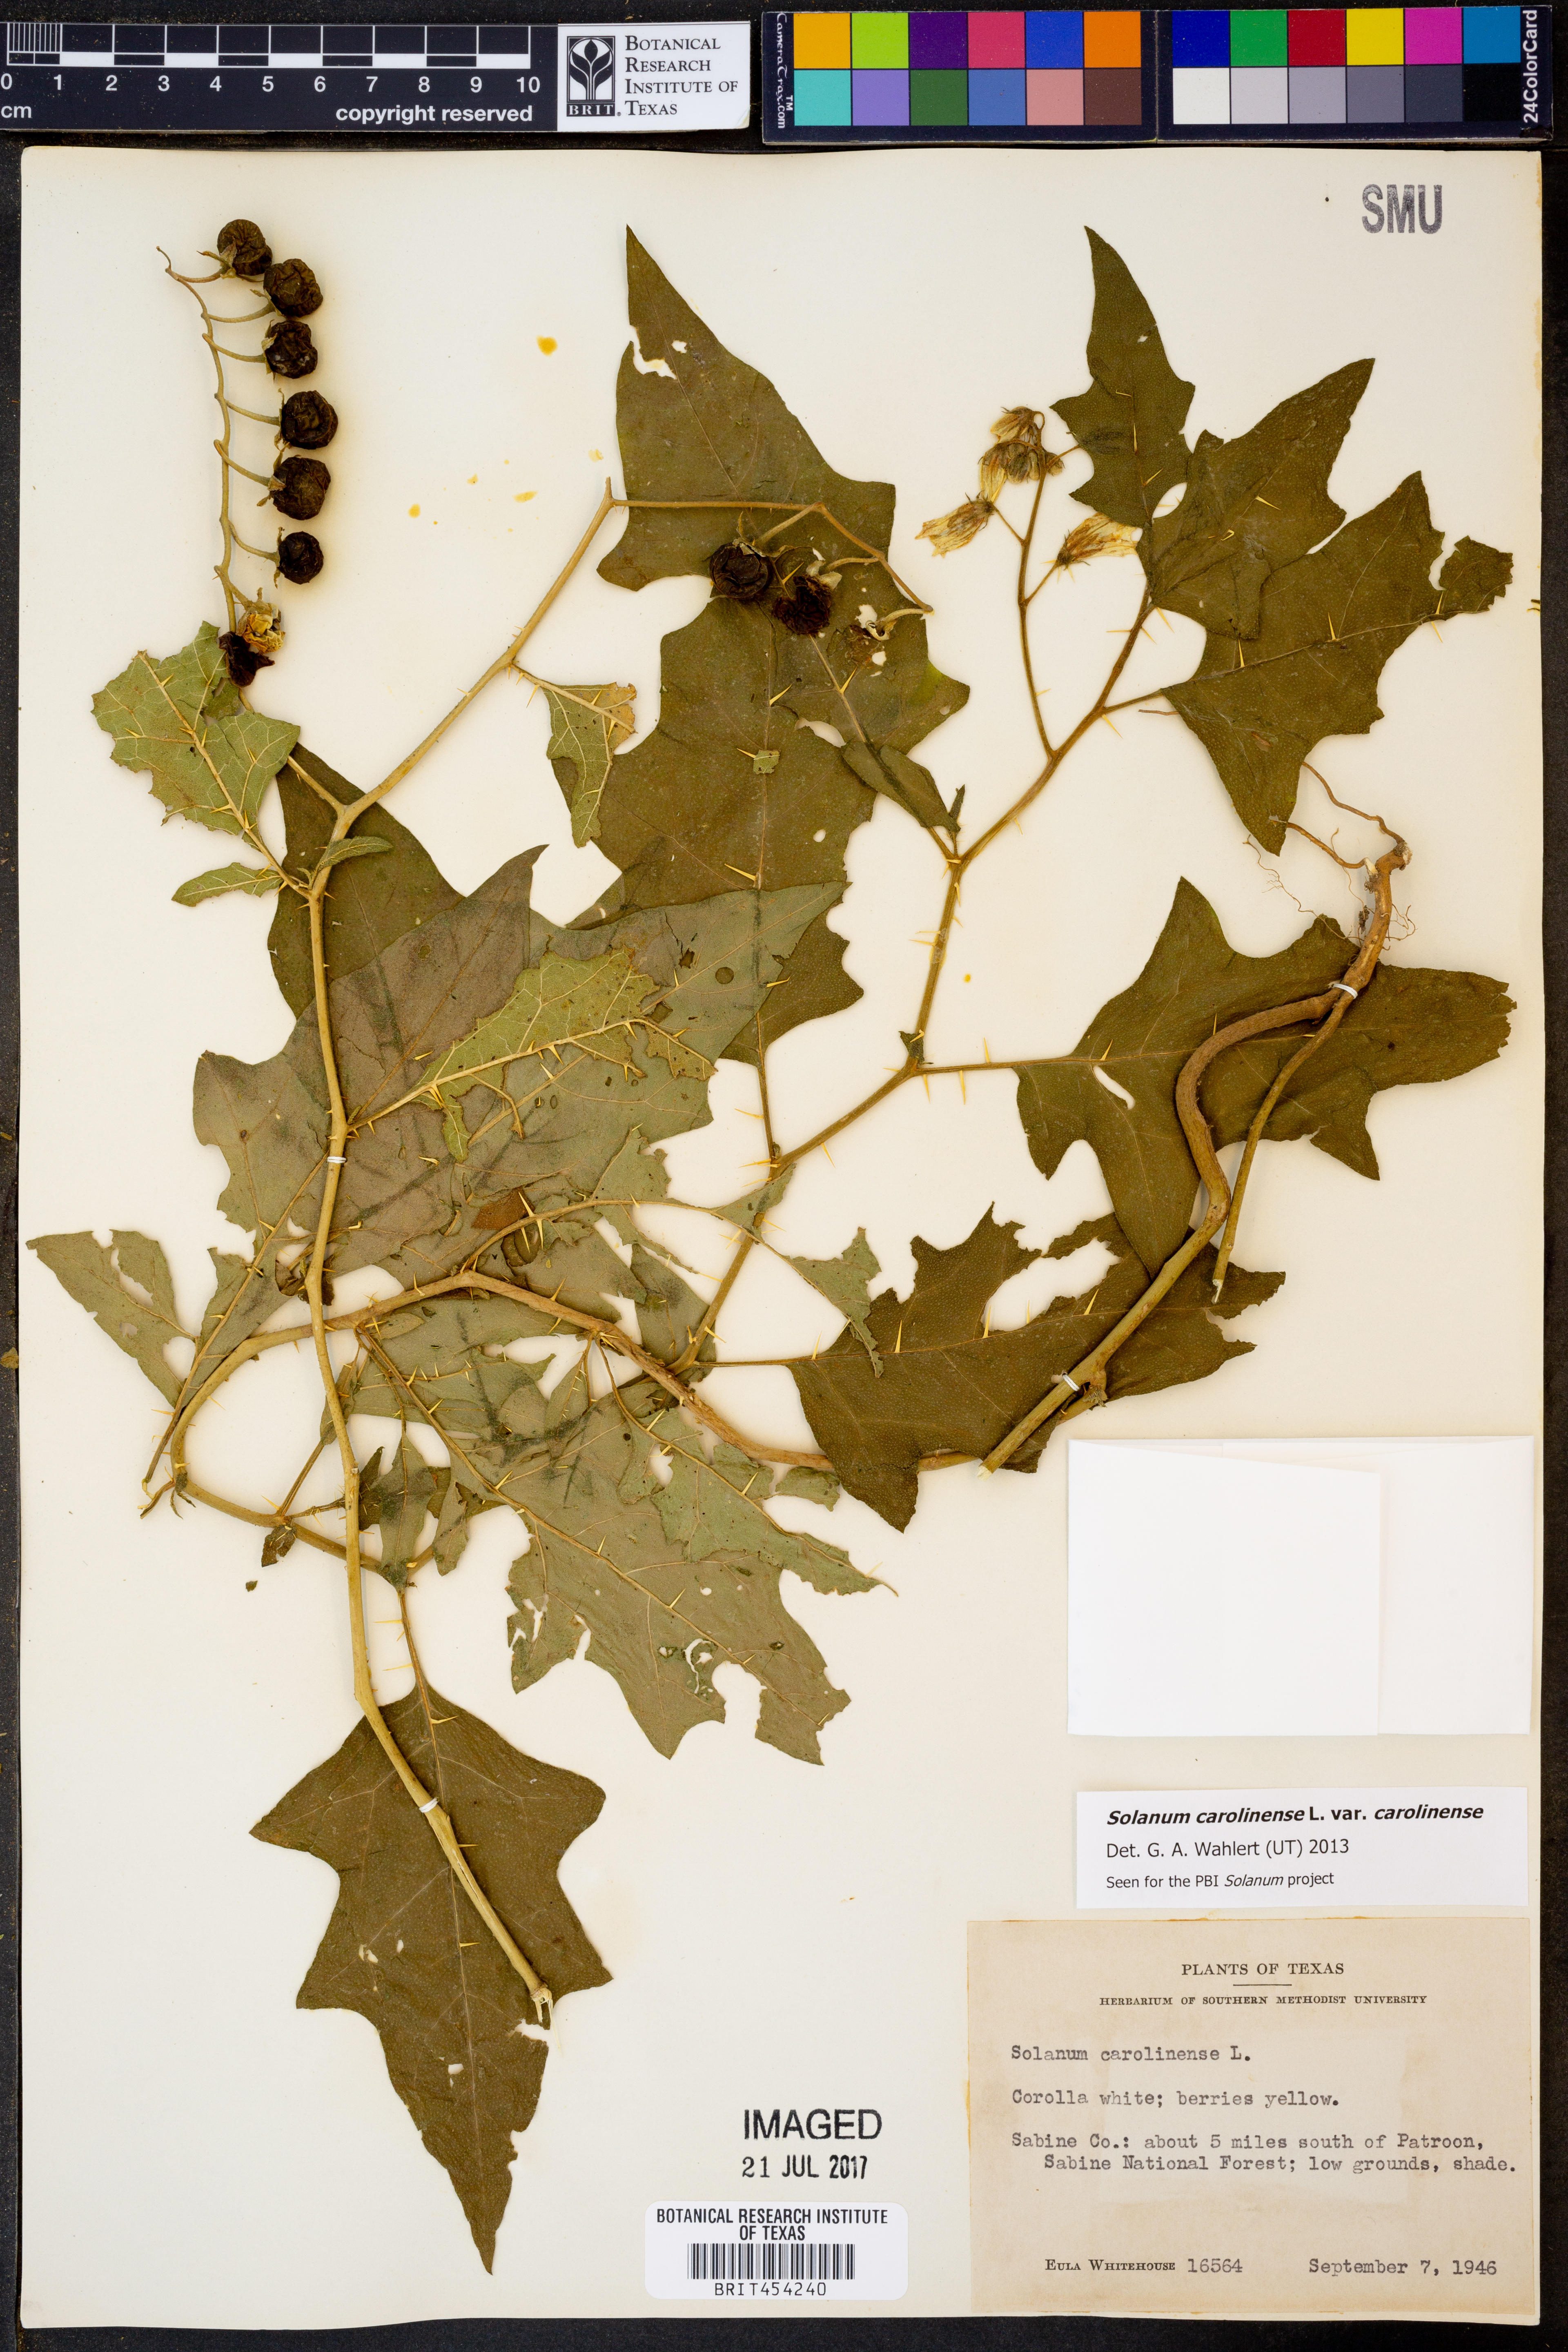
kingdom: Plantae
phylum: Tracheophyta
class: Magnoliopsida
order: Solanales
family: Solanaceae
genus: Solanum
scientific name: Solanum carolinense
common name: Horse-nettle
